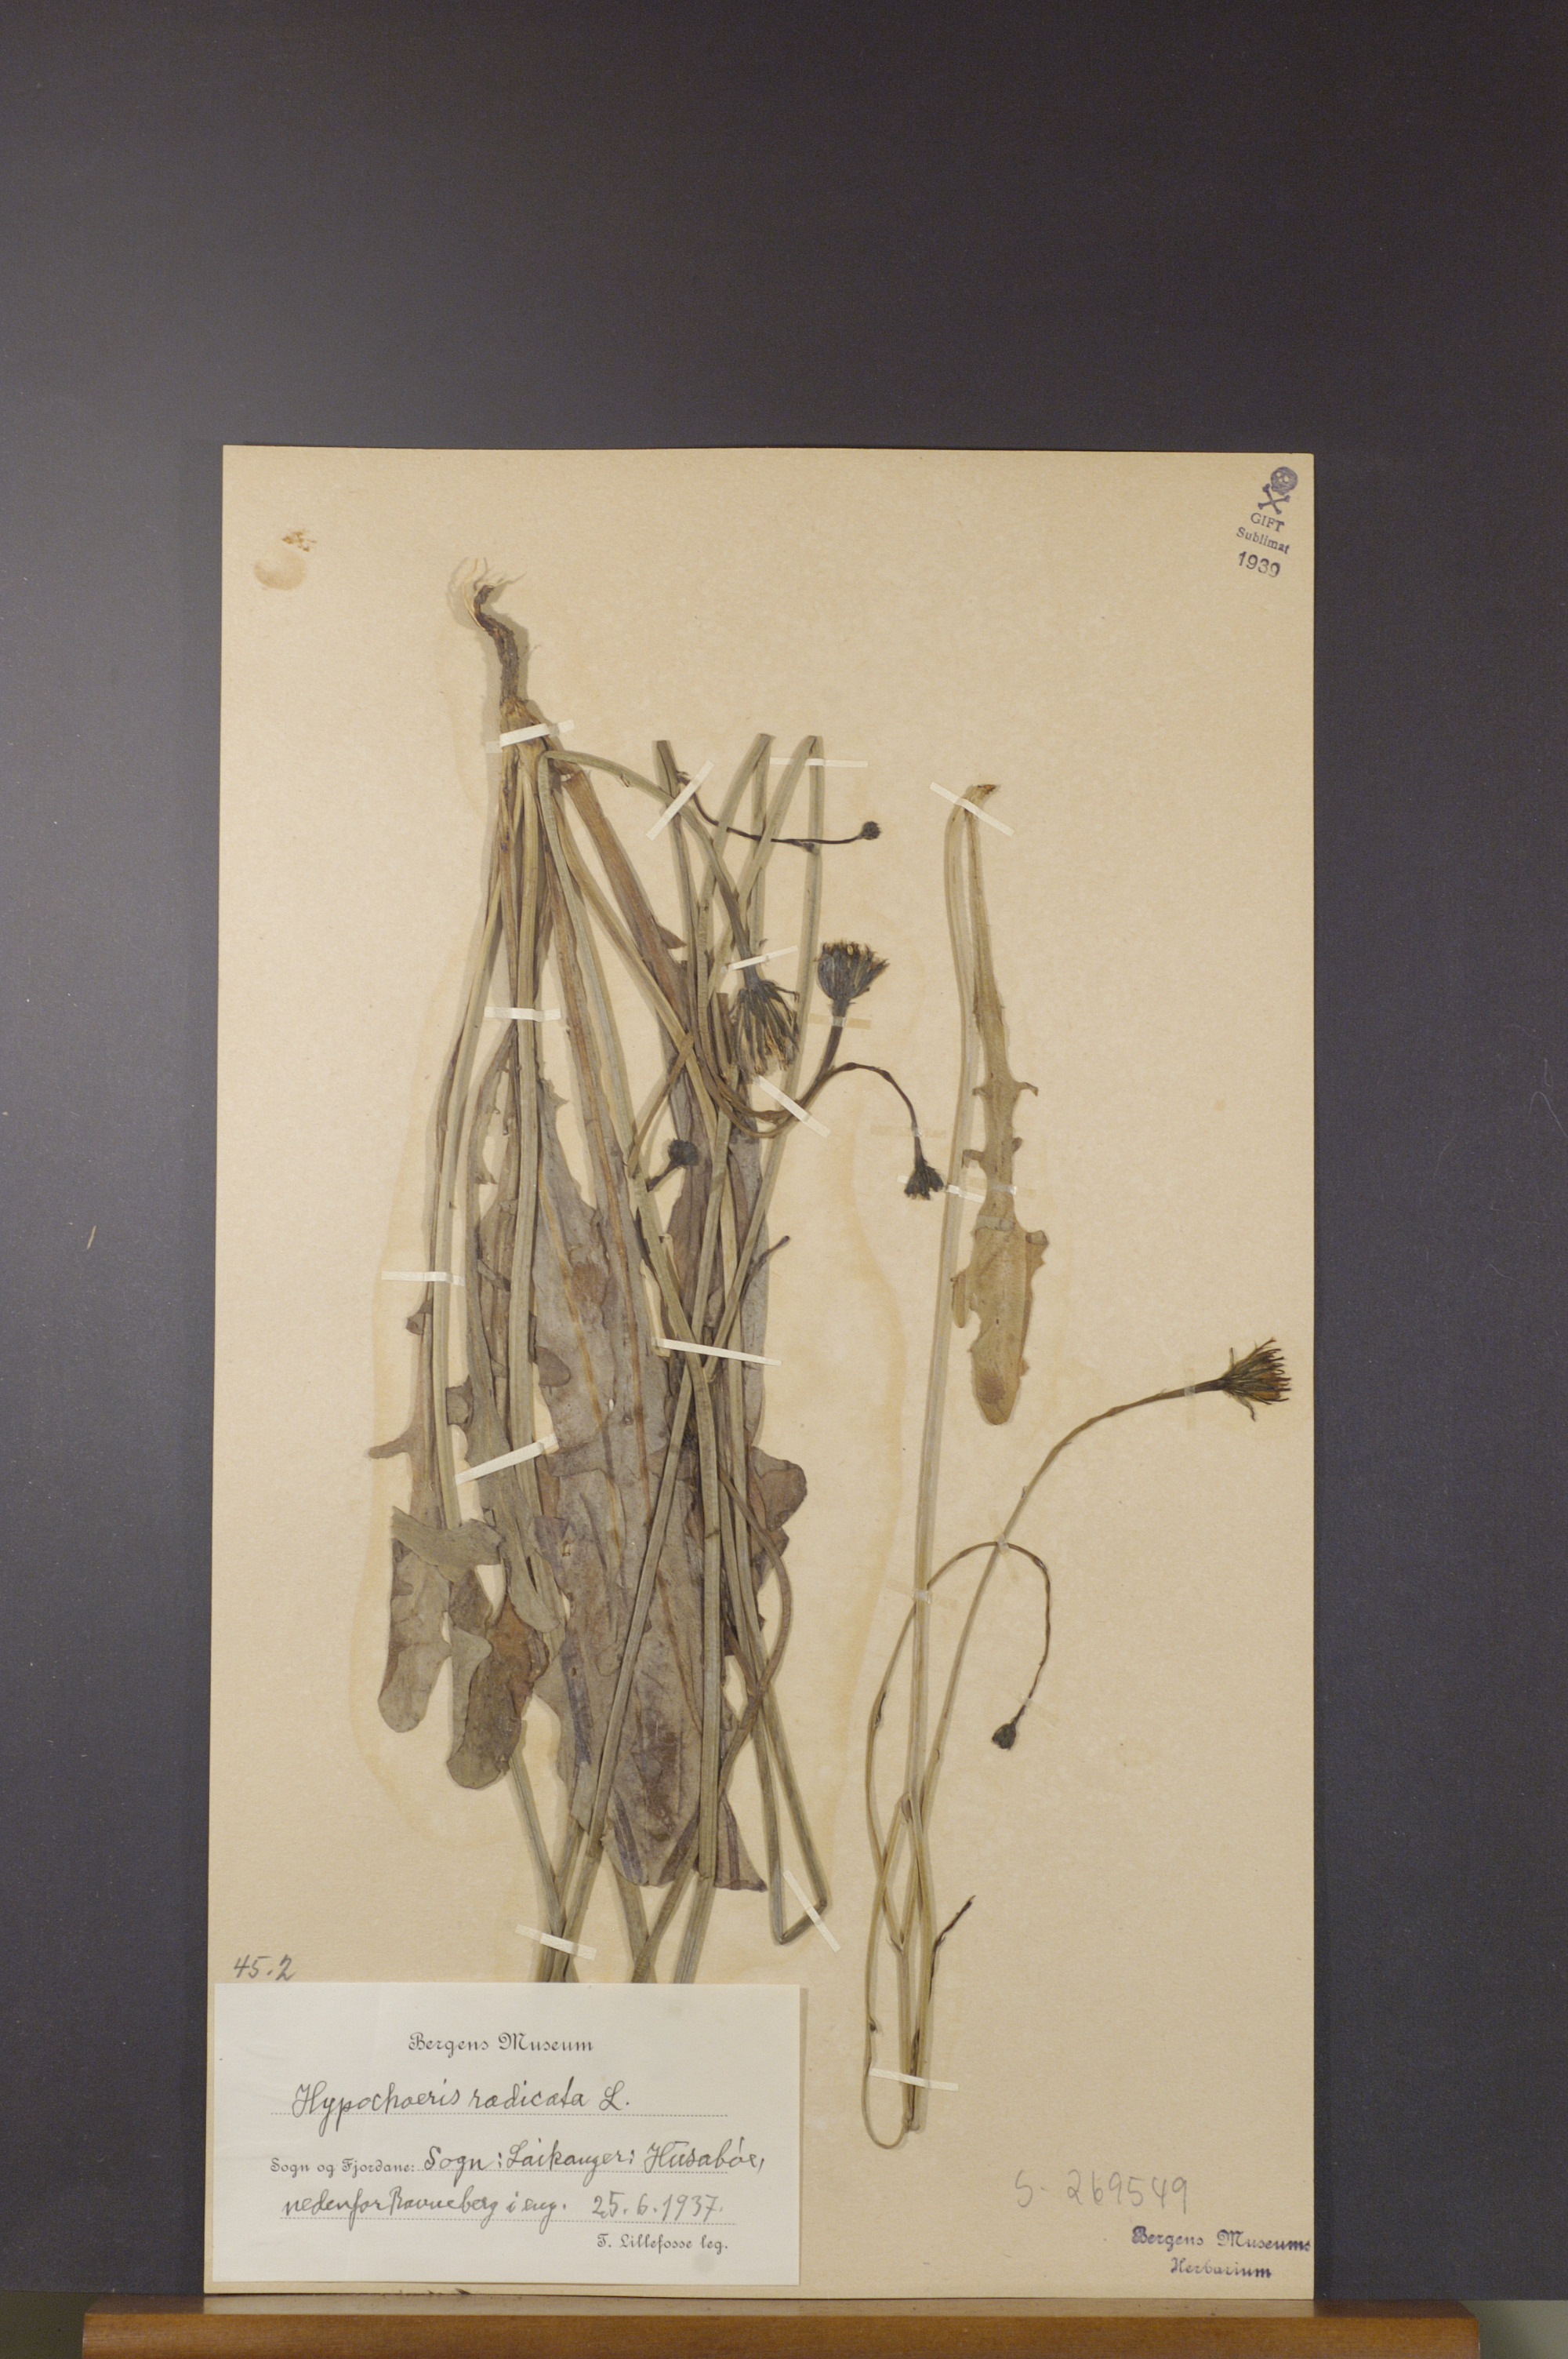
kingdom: Plantae
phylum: Tracheophyta
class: Magnoliopsida
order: Asterales
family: Asteraceae
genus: Hypochaeris
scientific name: Hypochaeris radicata
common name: Flatweed
